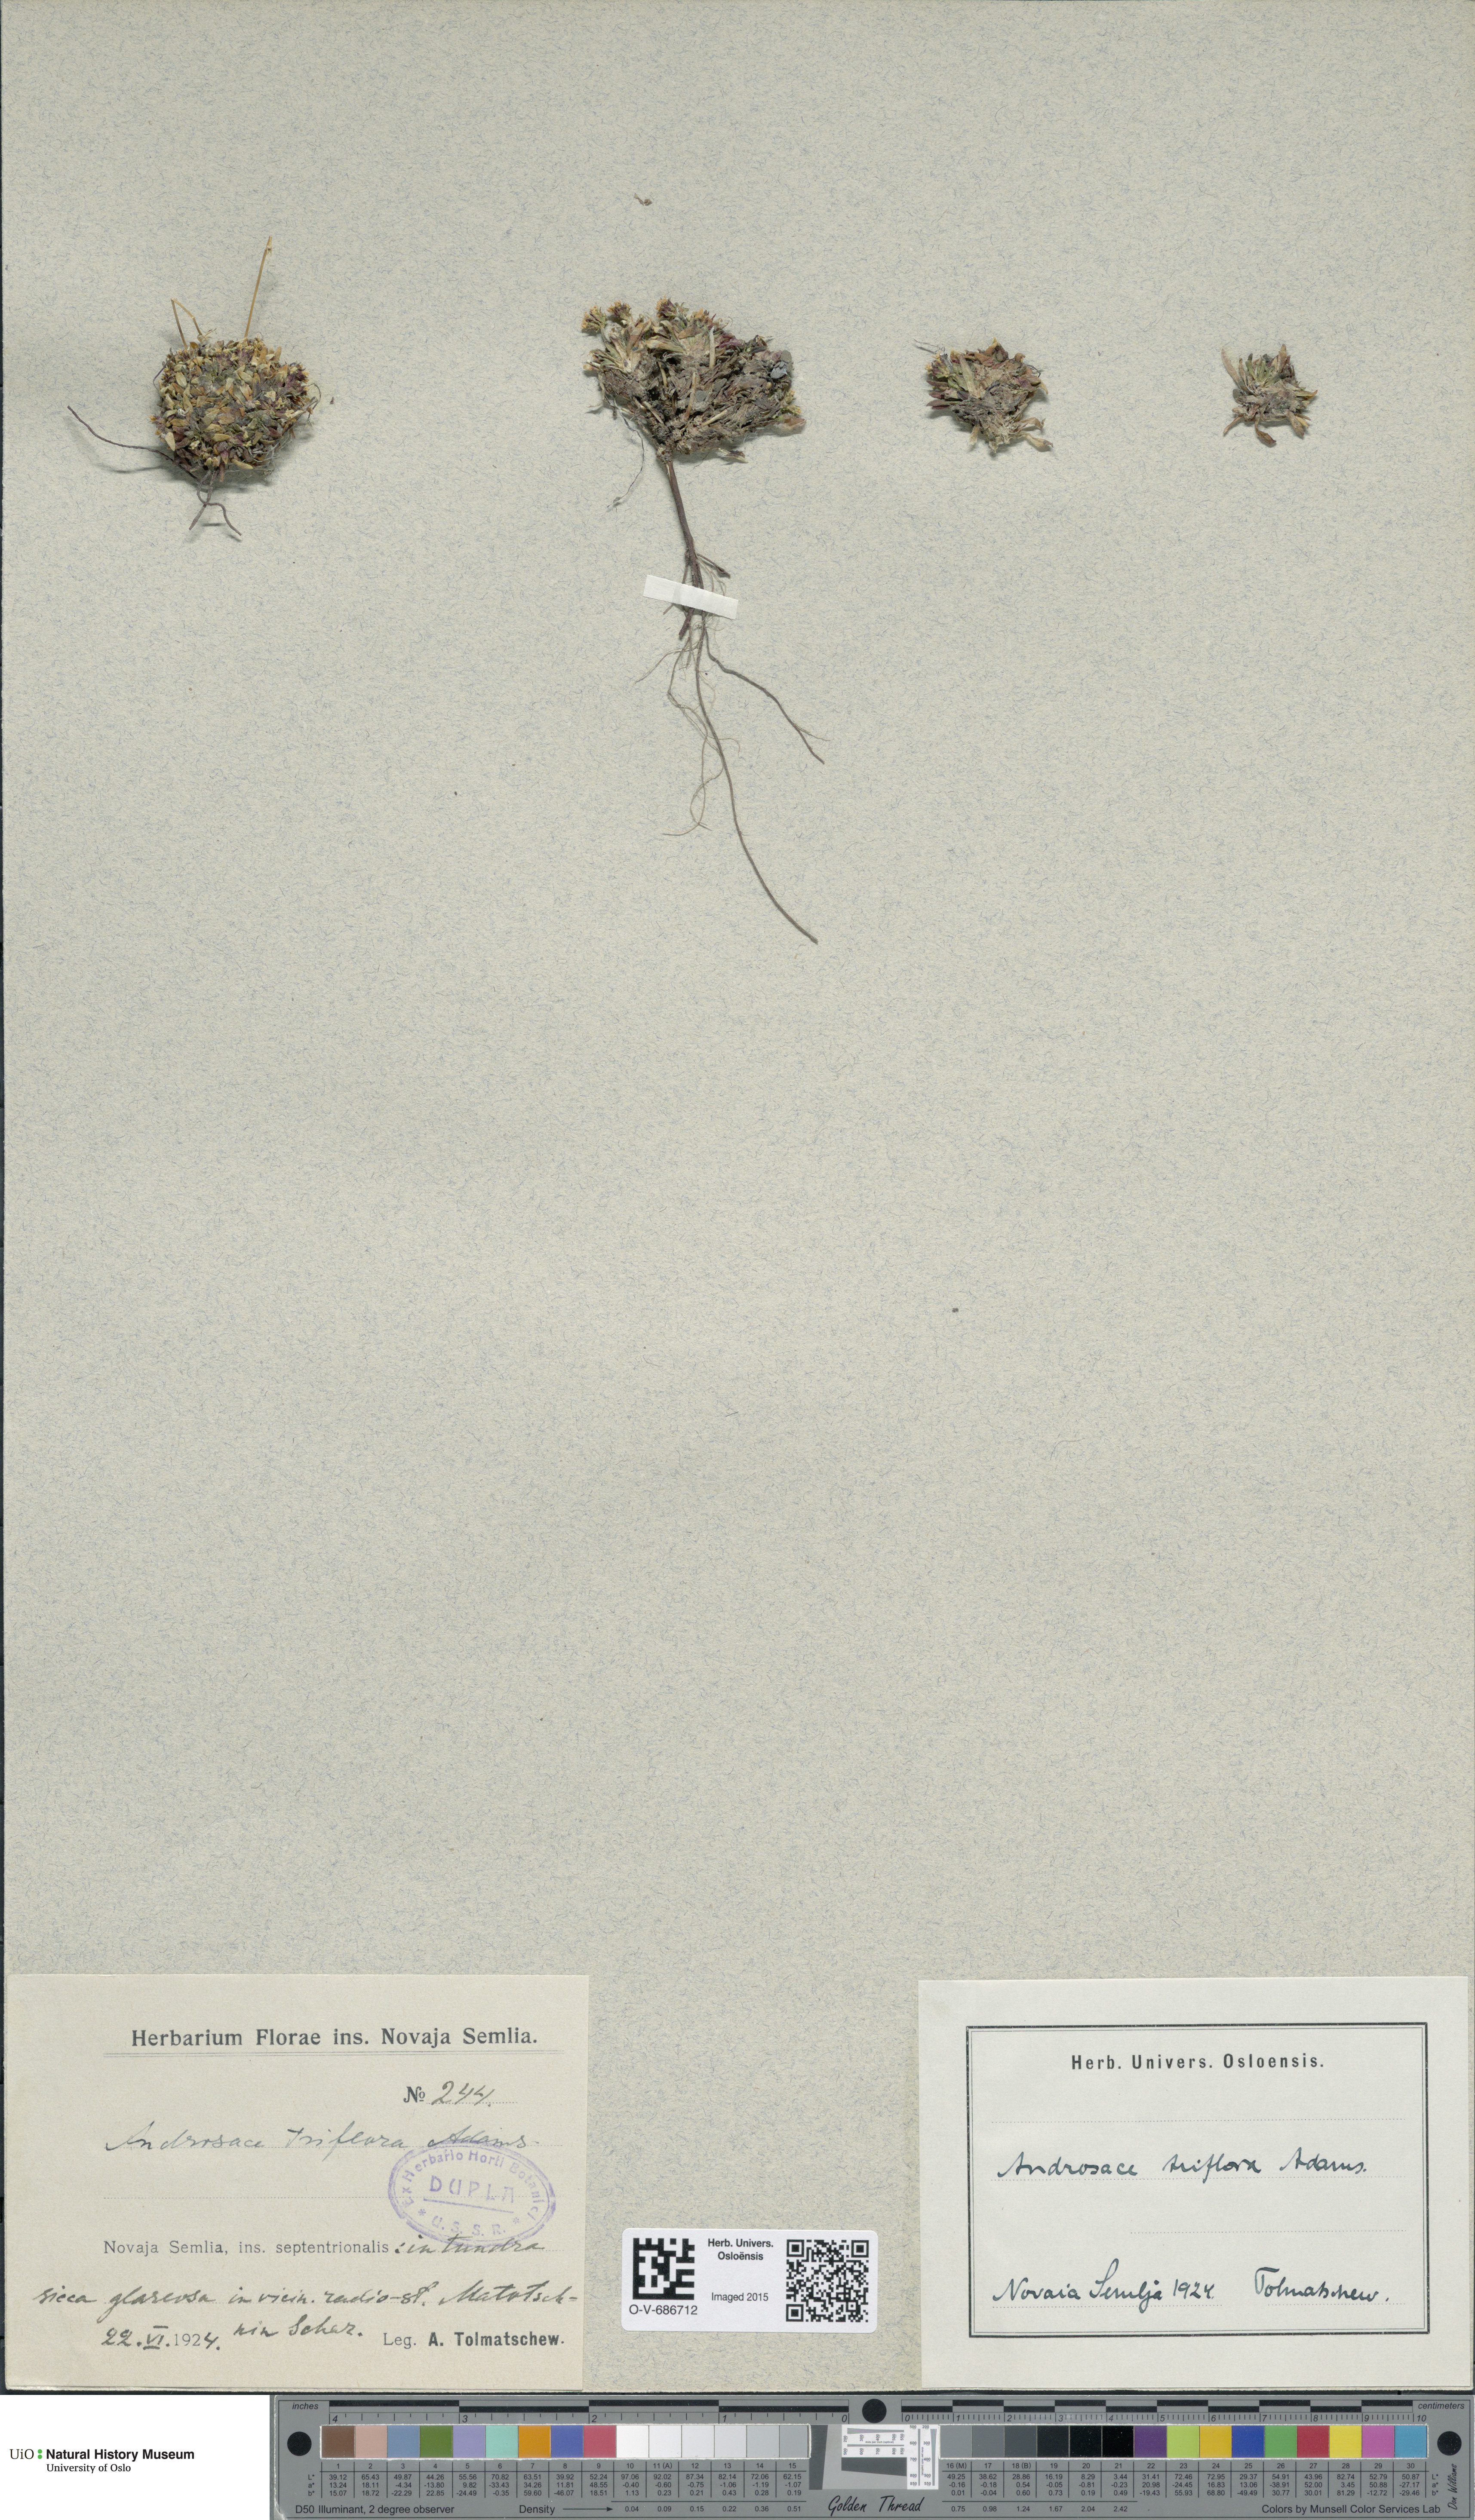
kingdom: Plantae
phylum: Tracheophyta
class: Magnoliopsida
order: Ericales
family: Primulaceae
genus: Androsace
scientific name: Androsace triflora
